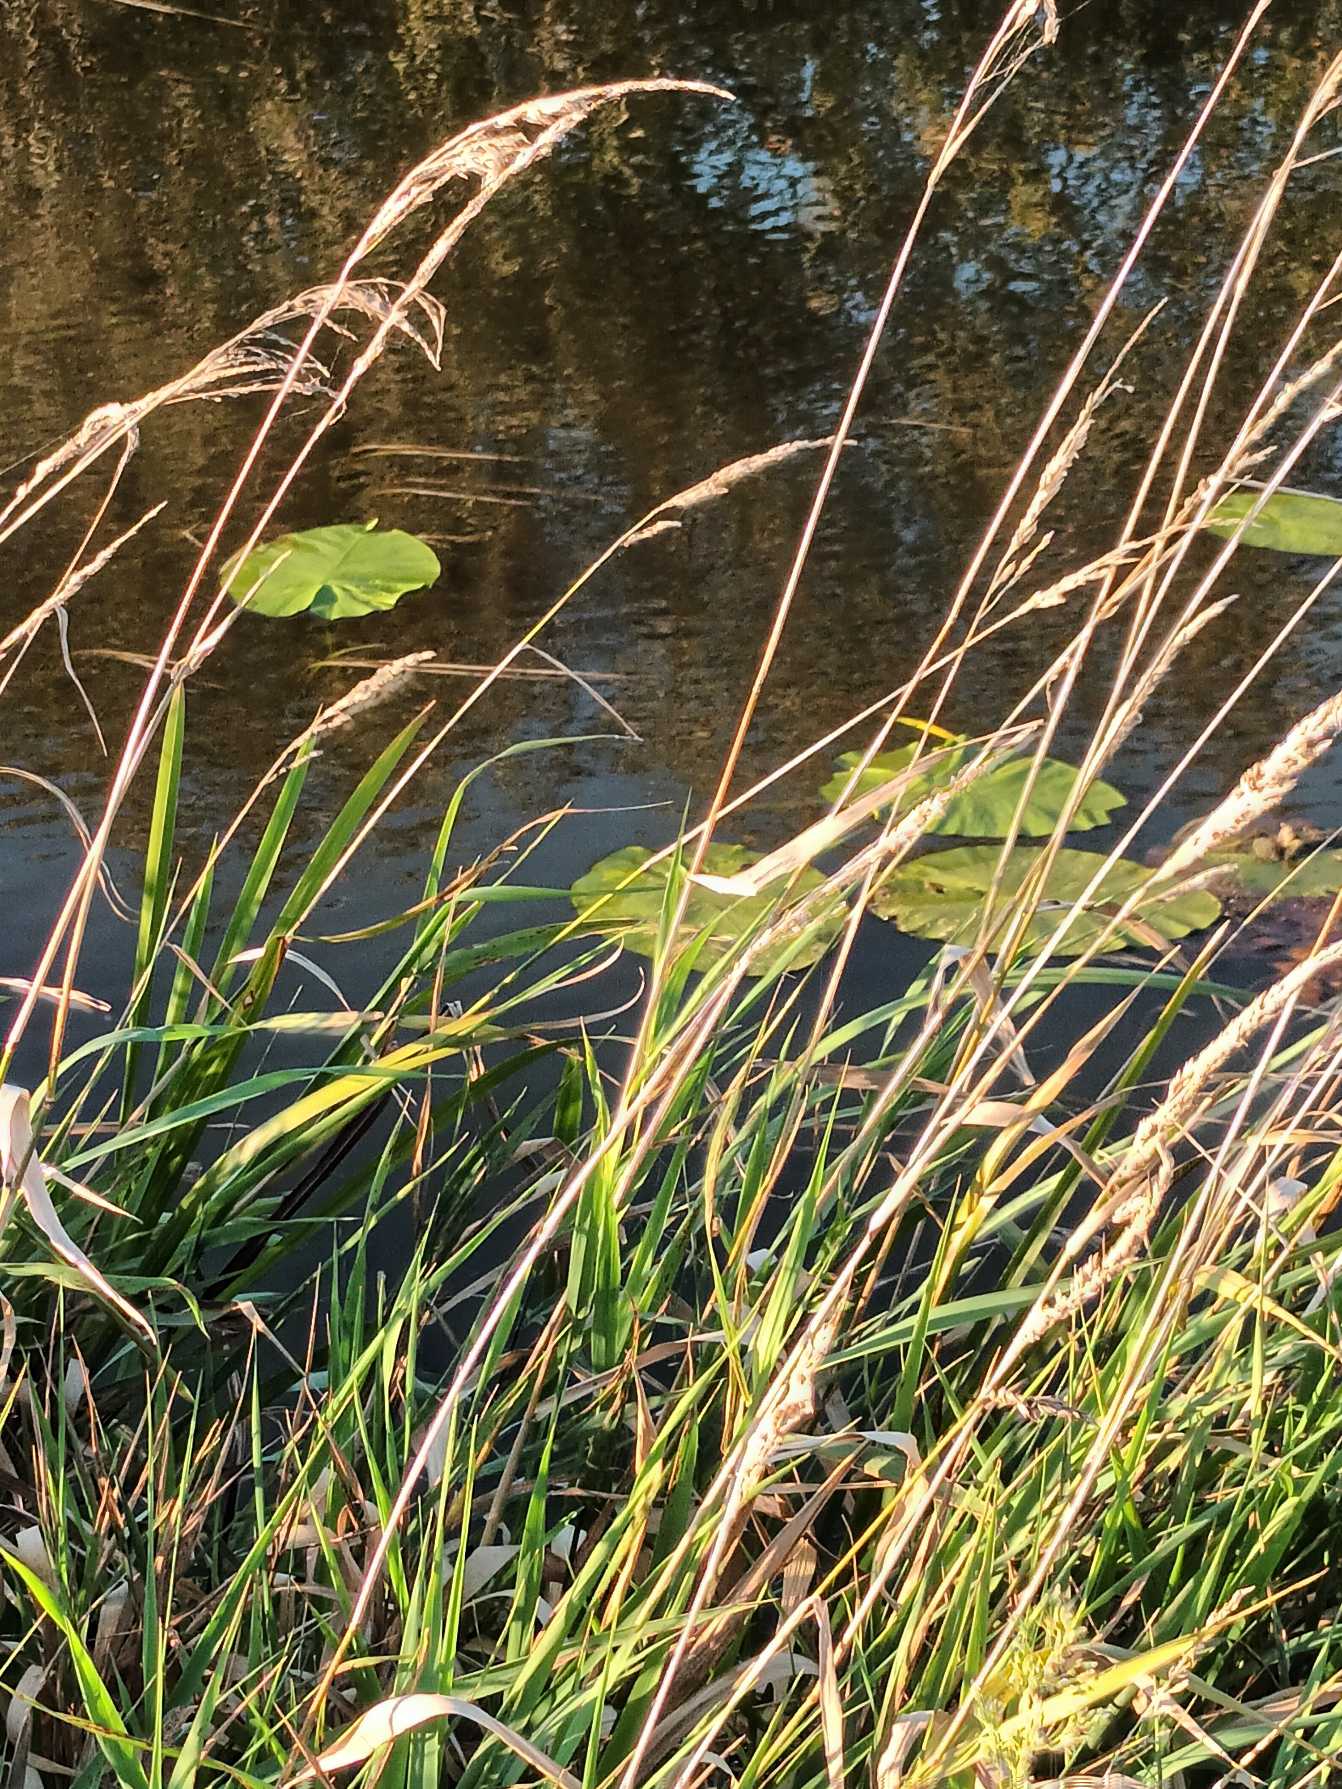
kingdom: Plantae
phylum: Tracheophyta
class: Magnoliopsida
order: Nymphaeales
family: Nymphaeaceae
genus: Nuphar
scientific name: Nuphar lutea
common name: Gul åkande
